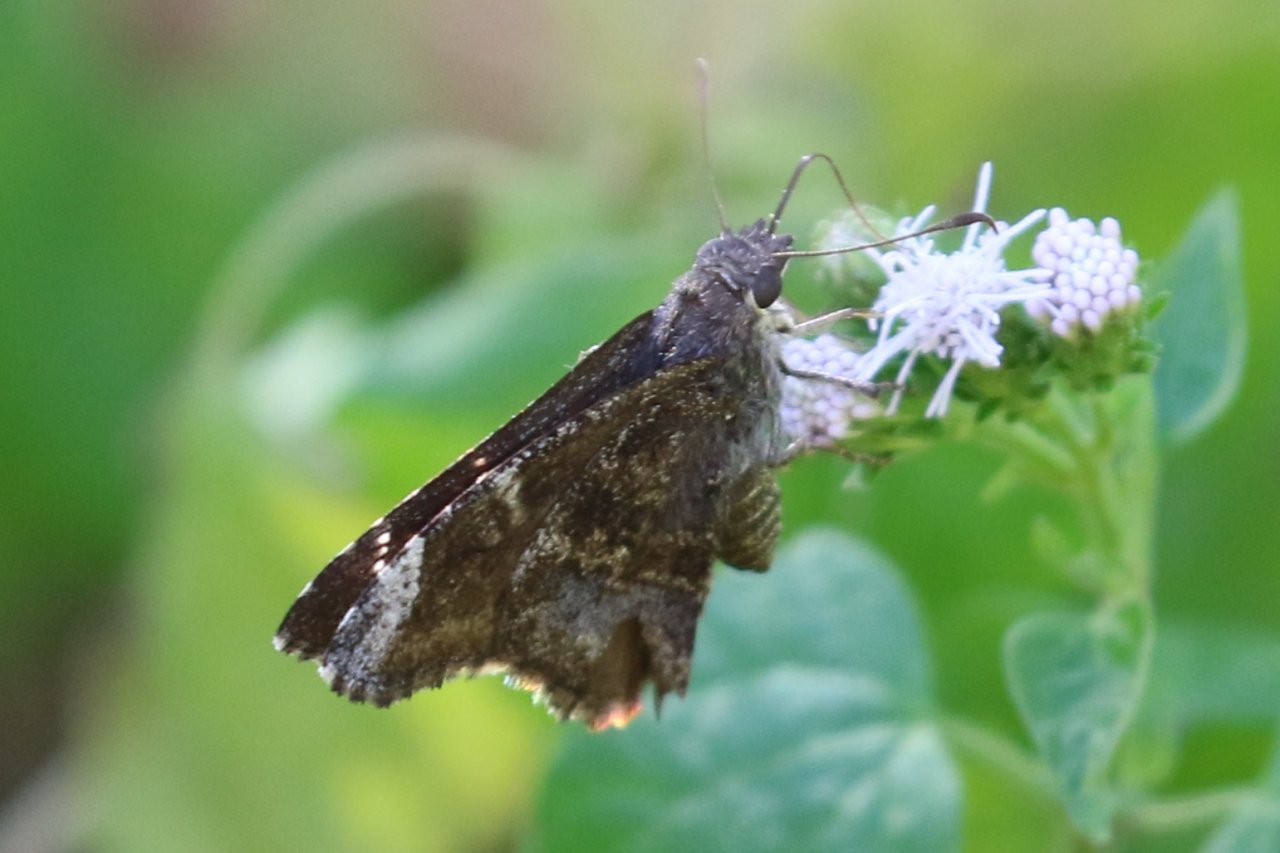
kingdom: Animalia
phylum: Arthropoda
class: Insecta
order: Lepidoptera
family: Hesperiidae
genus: Caicella
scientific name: Caicella calchas
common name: Mimosa Skipper
